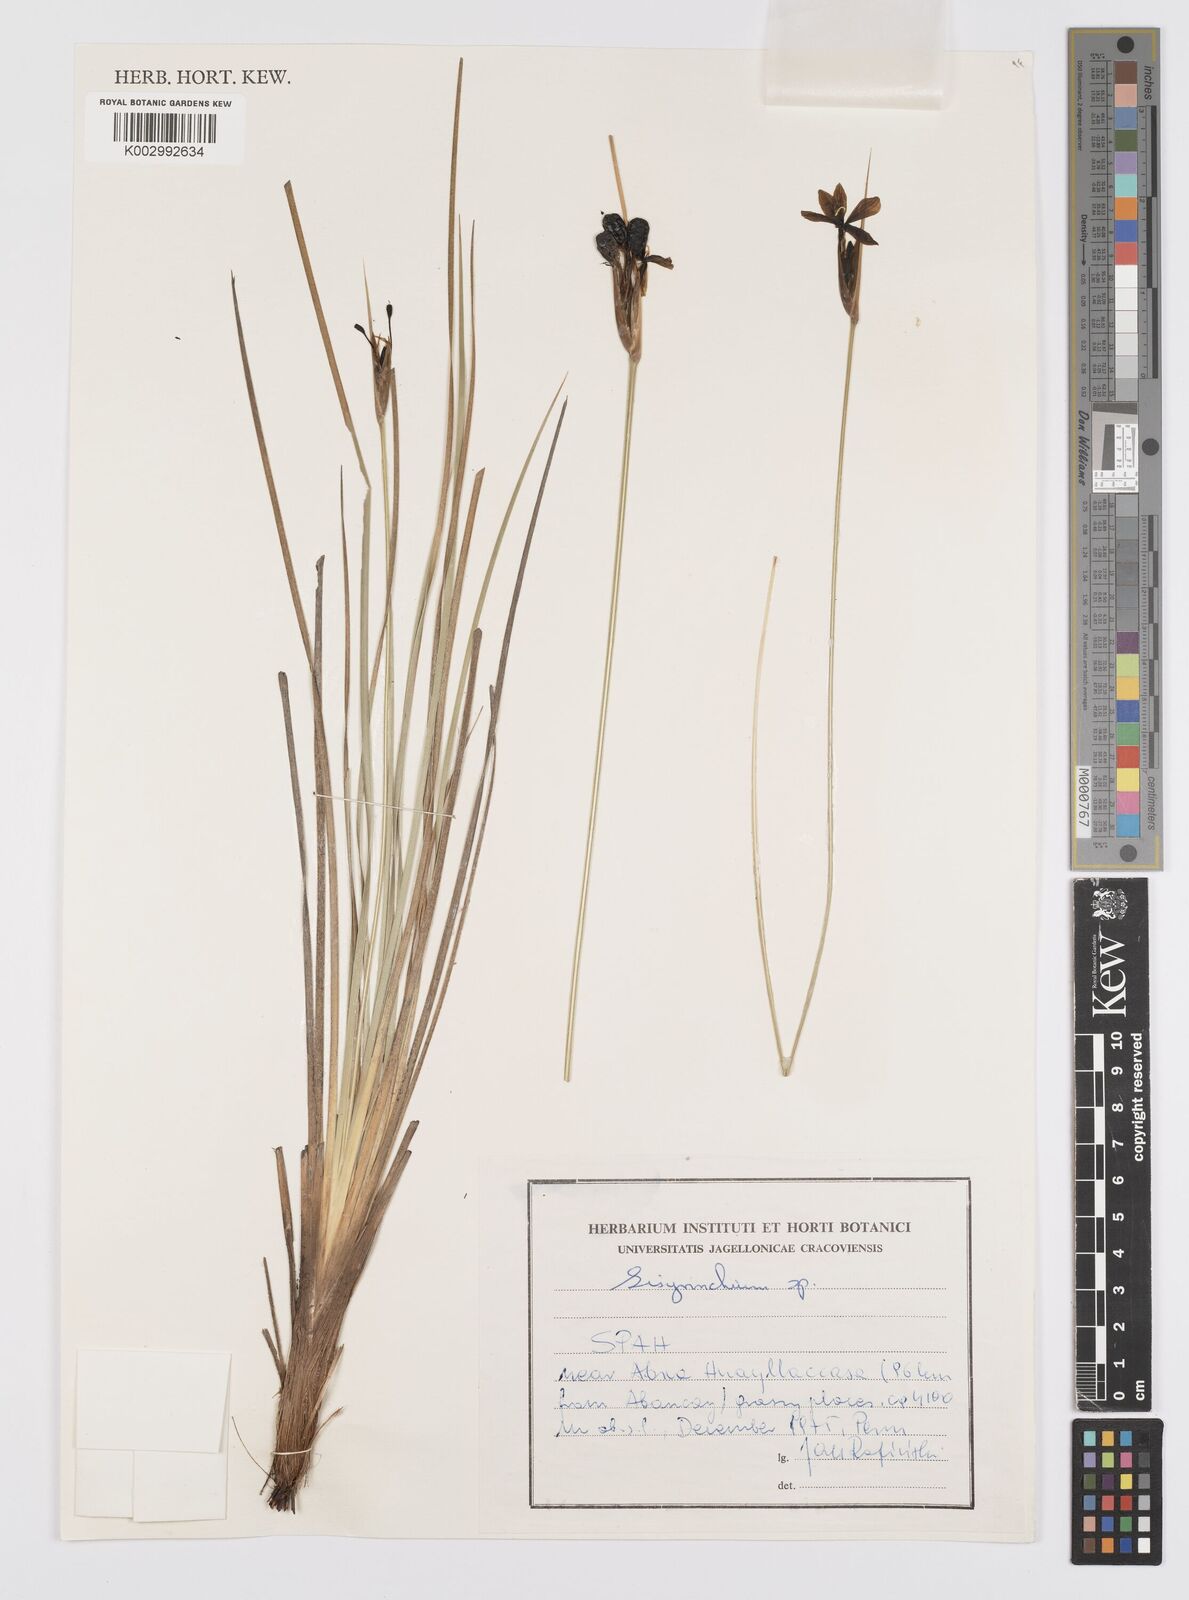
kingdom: Plantae
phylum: Tracheophyta
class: Liliopsida
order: Asparagales
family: Iridaceae
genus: Sisyrinchium
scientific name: Sisyrinchium
